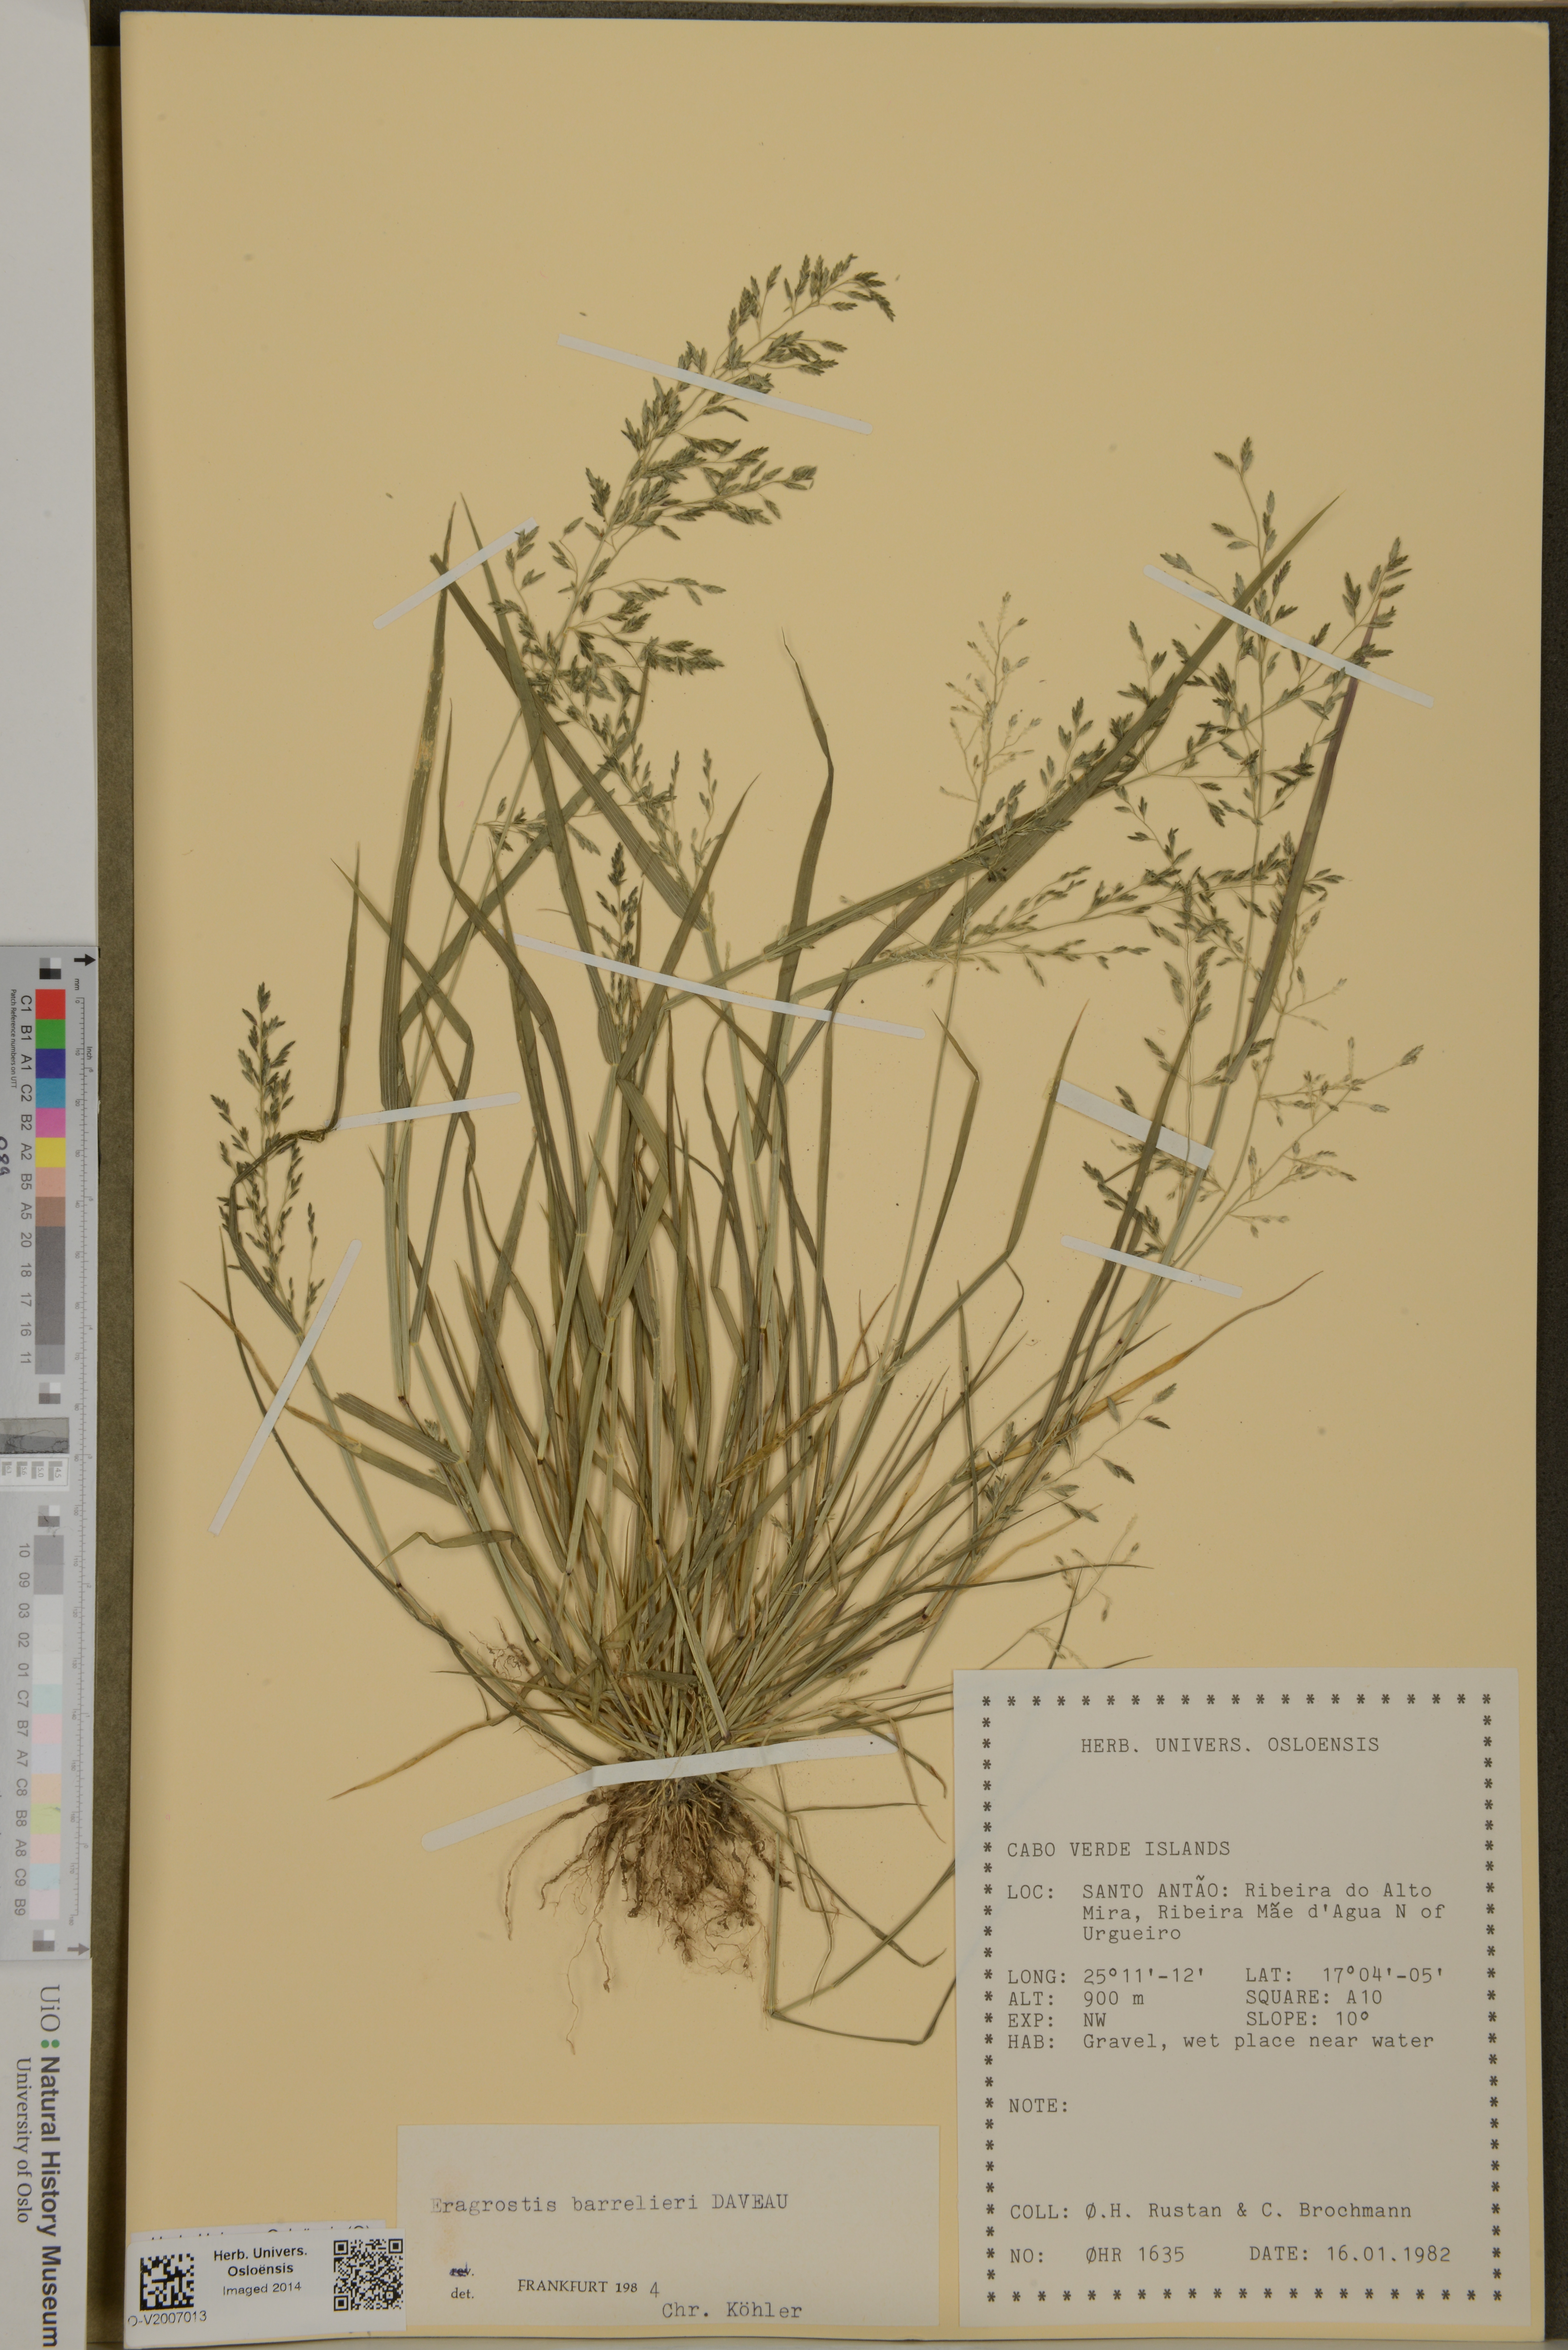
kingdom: Plantae
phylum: Tracheophyta
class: Liliopsida
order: Poales
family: Poaceae
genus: Eragrostis
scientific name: Eragrostis barrelieri
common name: Mediterranean lovegrass
